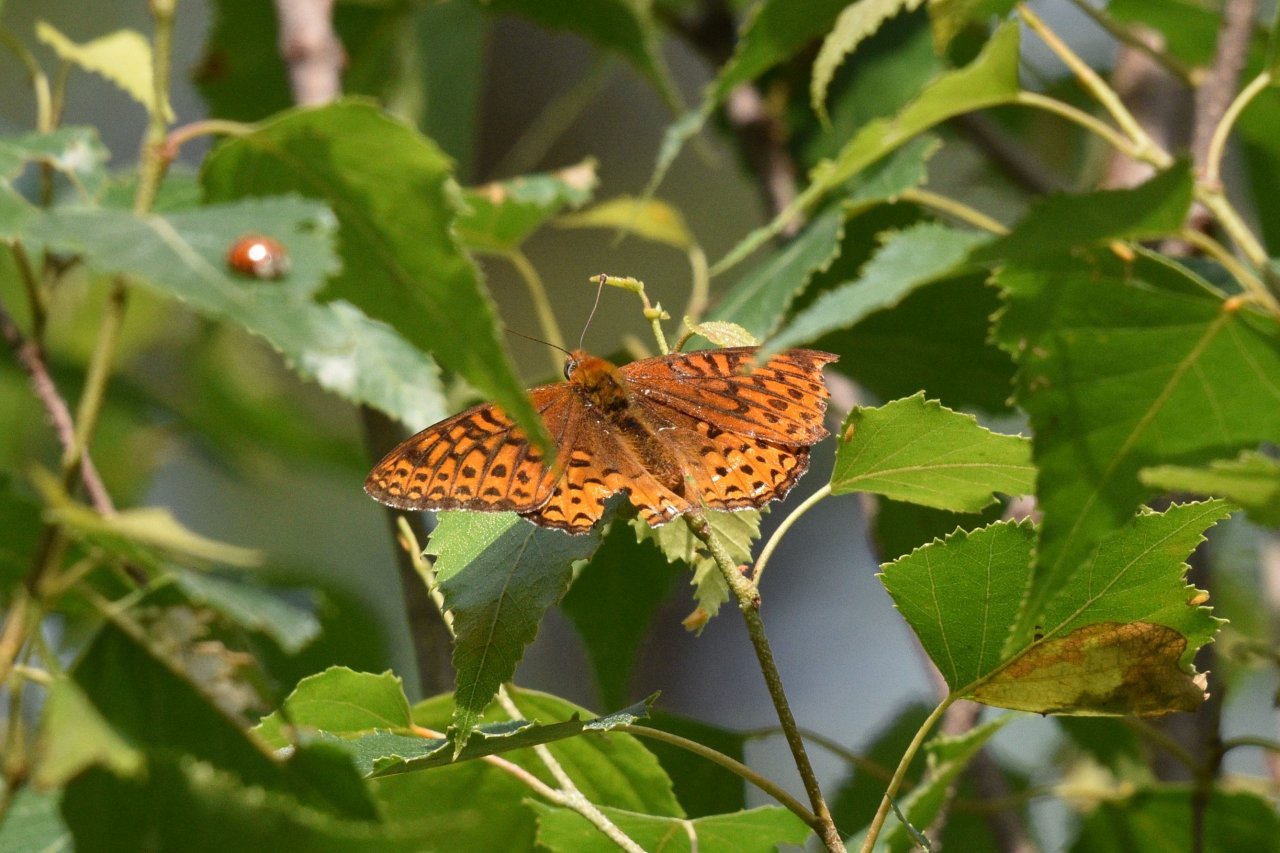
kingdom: Animalia
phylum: Arthropoda
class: Insecta
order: Lepidoptera
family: Nymphalidae
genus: Speyeria
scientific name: Speyeria atlantis
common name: Atlantis Fritillary
